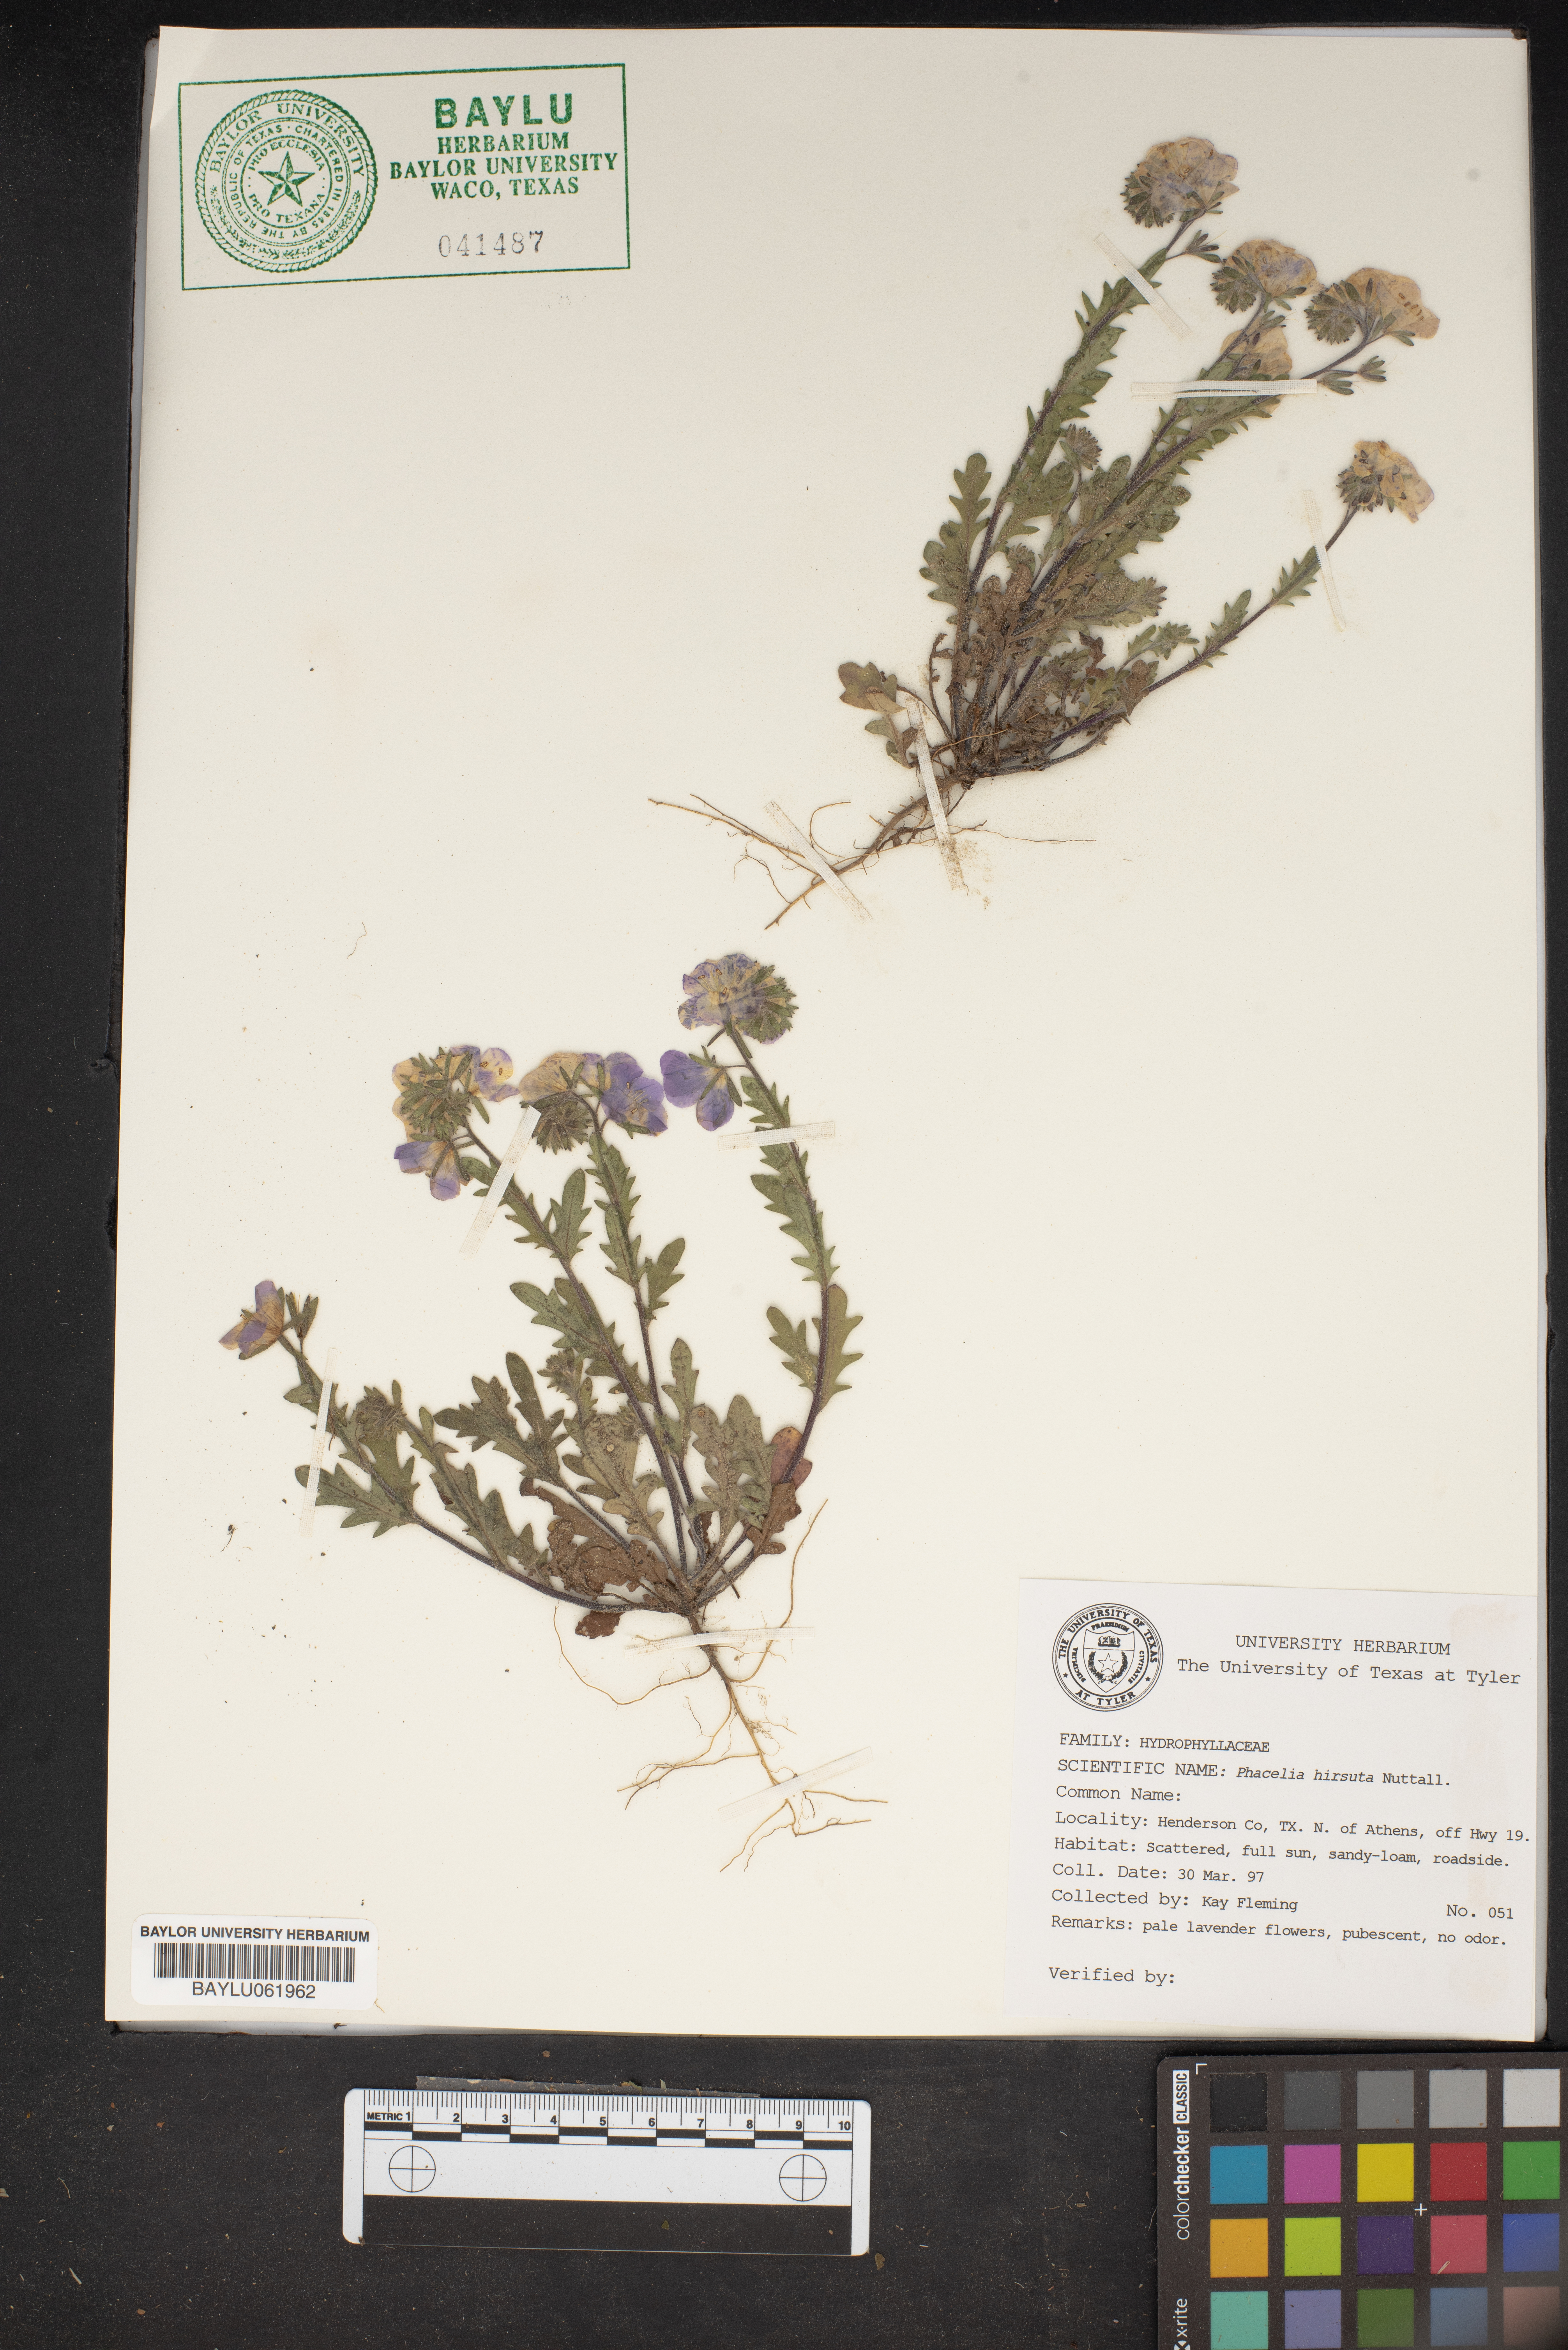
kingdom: Plantae
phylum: Tracheophyta
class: Magnoliopsida
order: Boraginales
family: Hydrophyllaceae
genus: Phacelia
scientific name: Phacelia hirsuta
